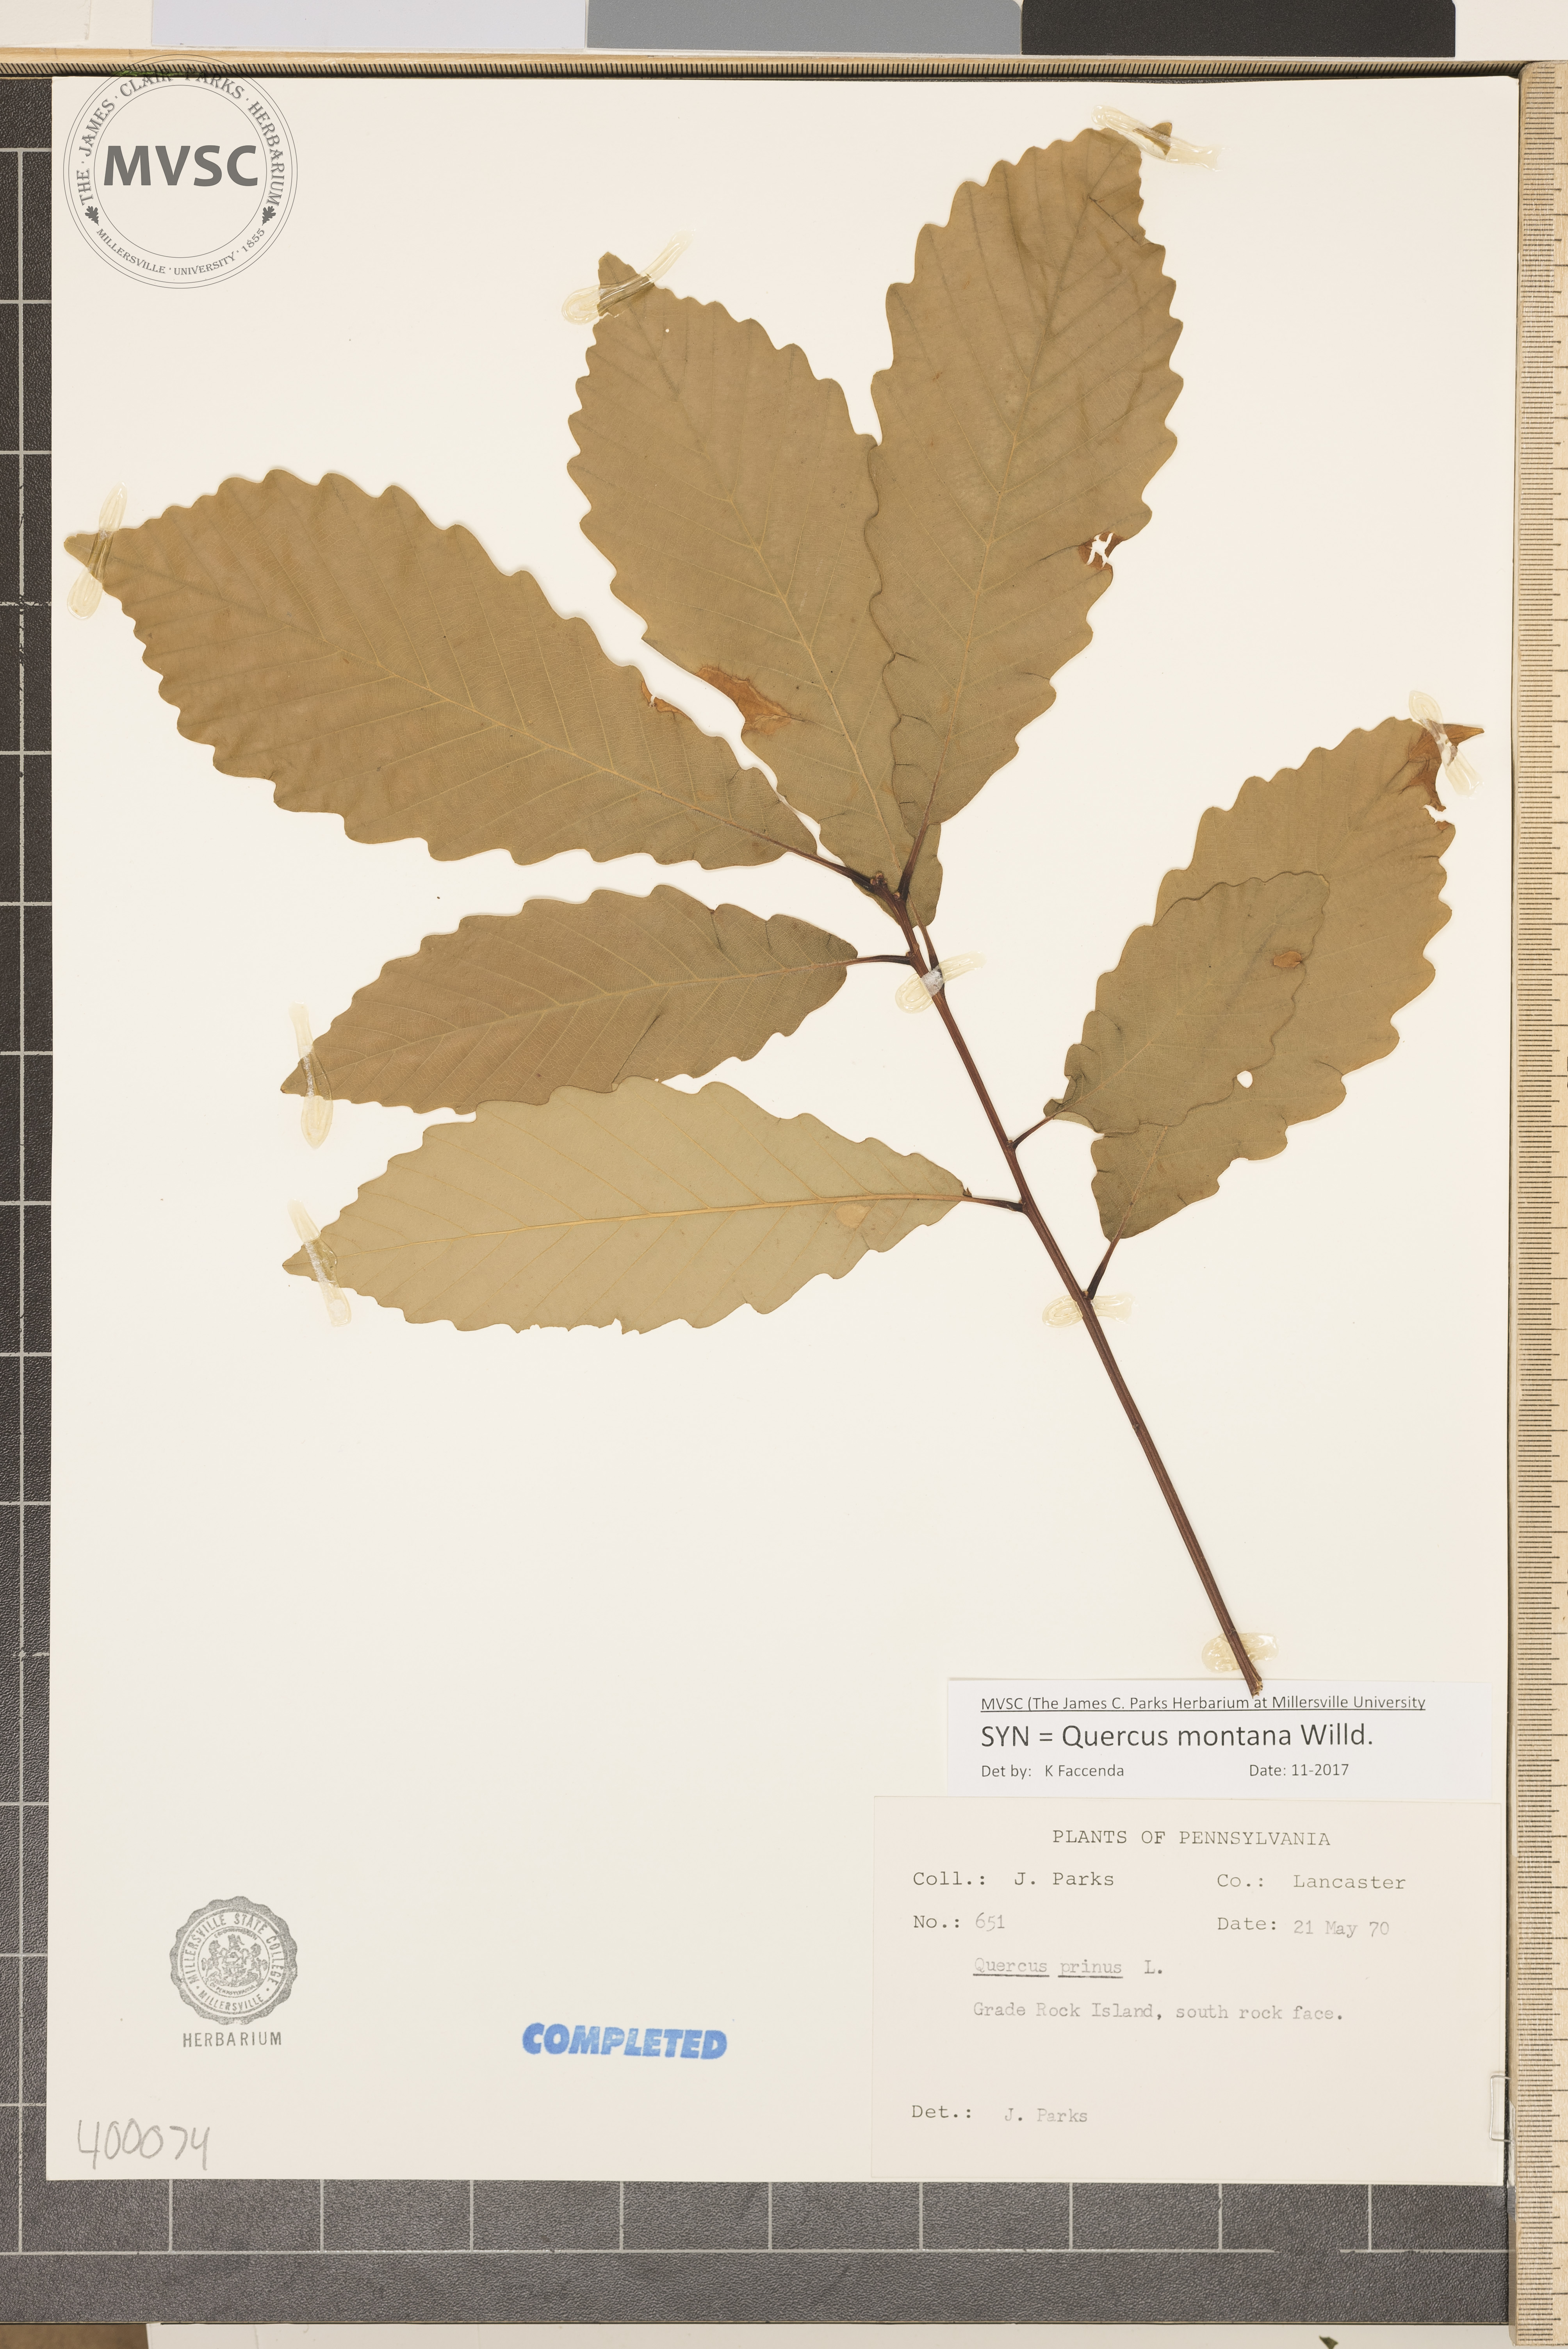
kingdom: Plantae
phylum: Tracheophyta
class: Magnoliopsida
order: Fagales
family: Fagaceae
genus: Quercus
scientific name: Quercus montana
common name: chestnut oak
